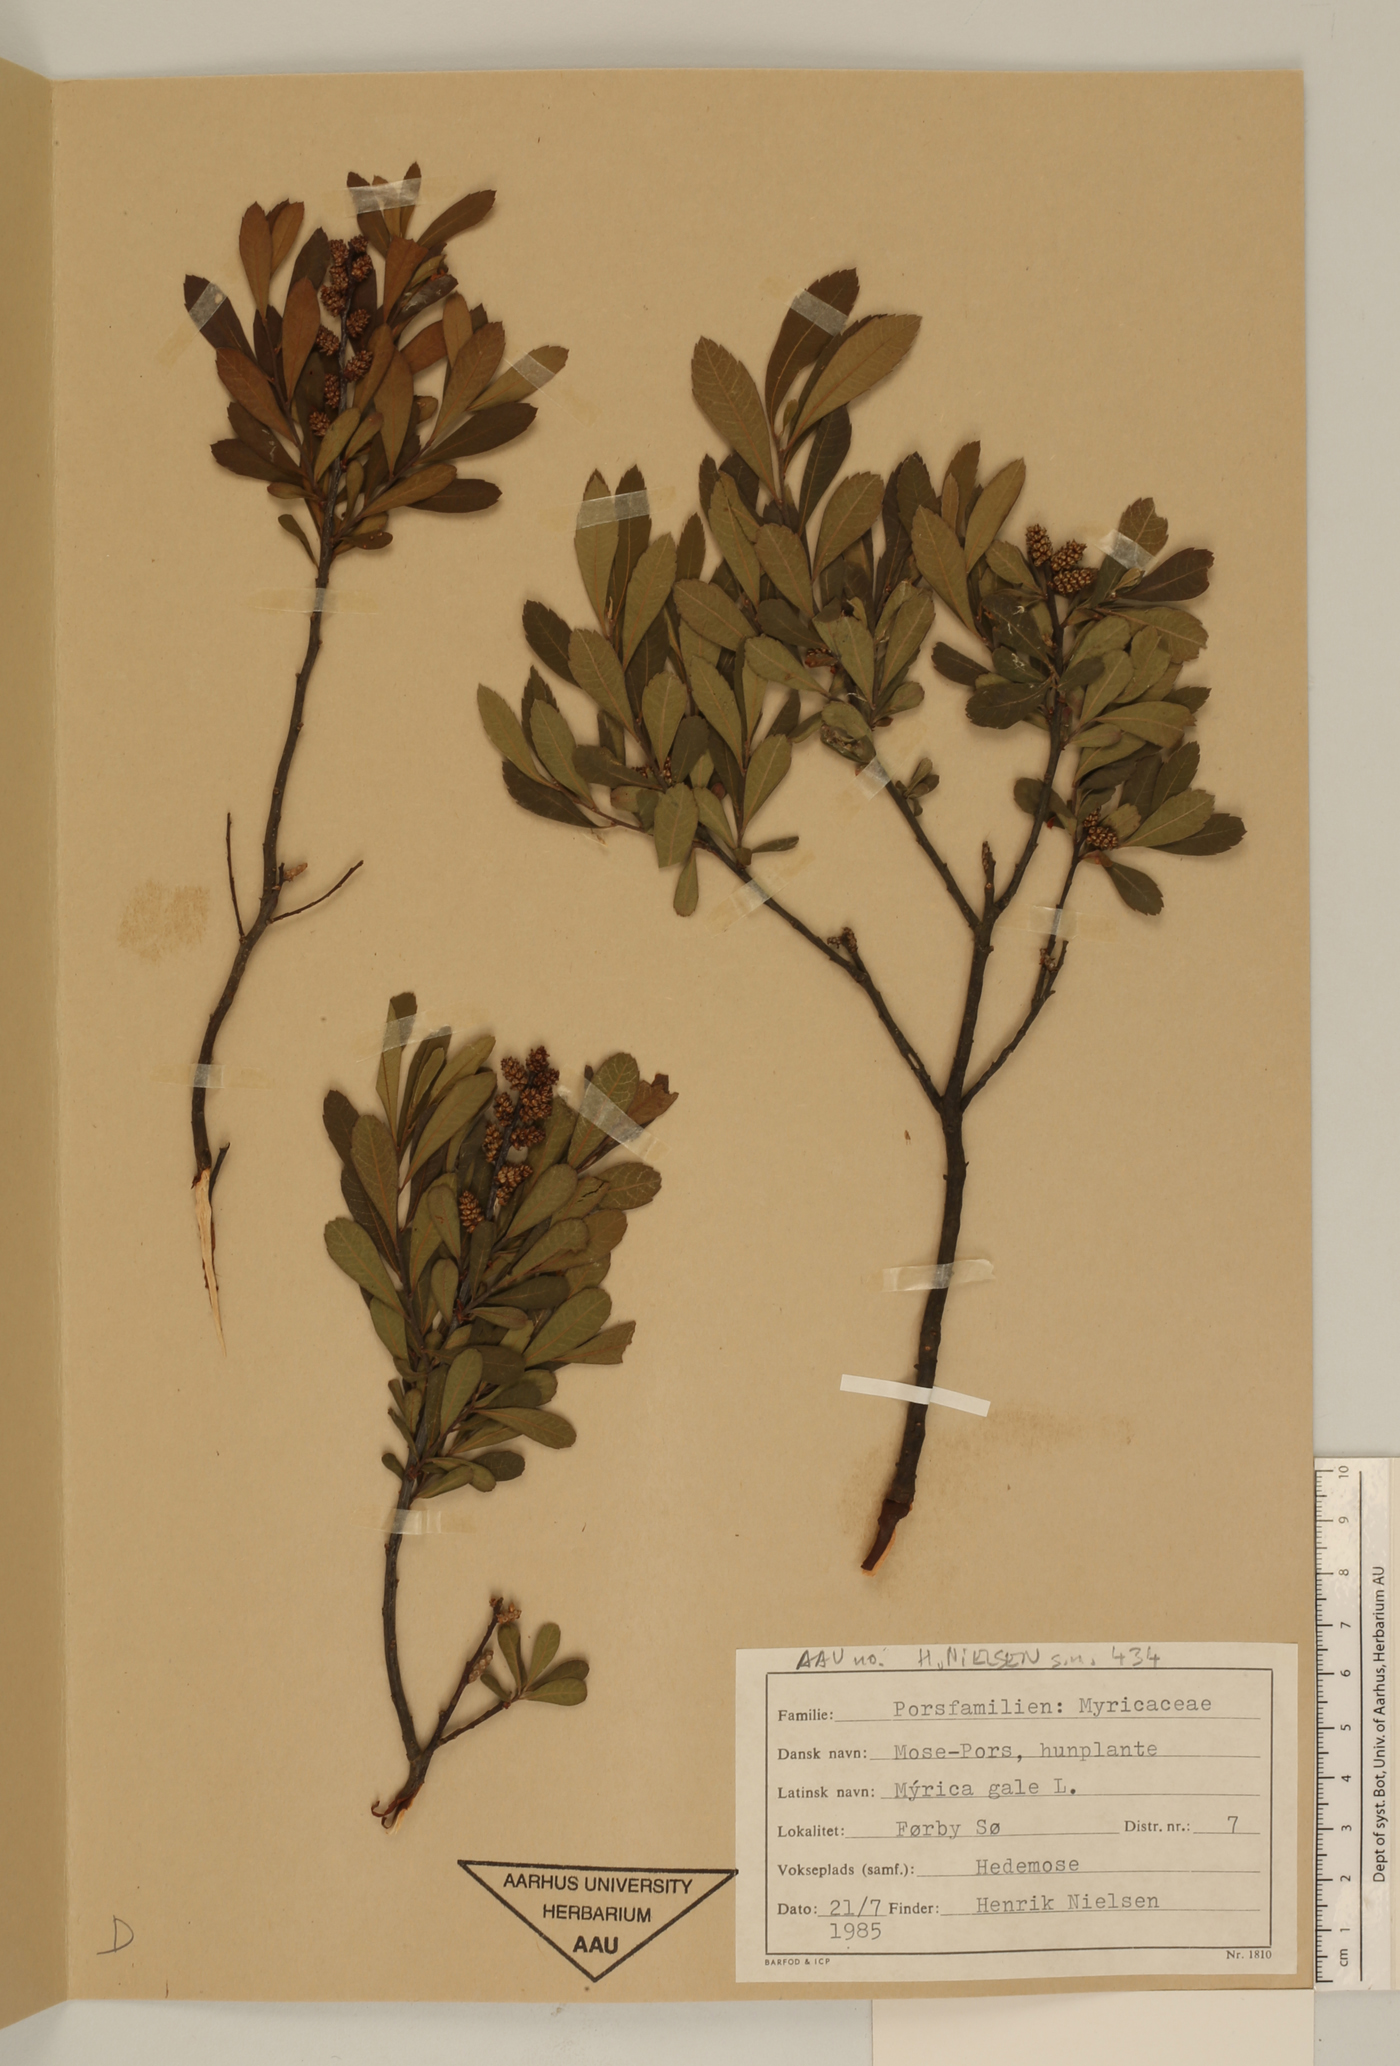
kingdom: Plantae
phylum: Tracheophyta
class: Magnoliopsida
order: Fagales
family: Myricaceae
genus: Myrica
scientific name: Myrica gale
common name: Sweet gale
